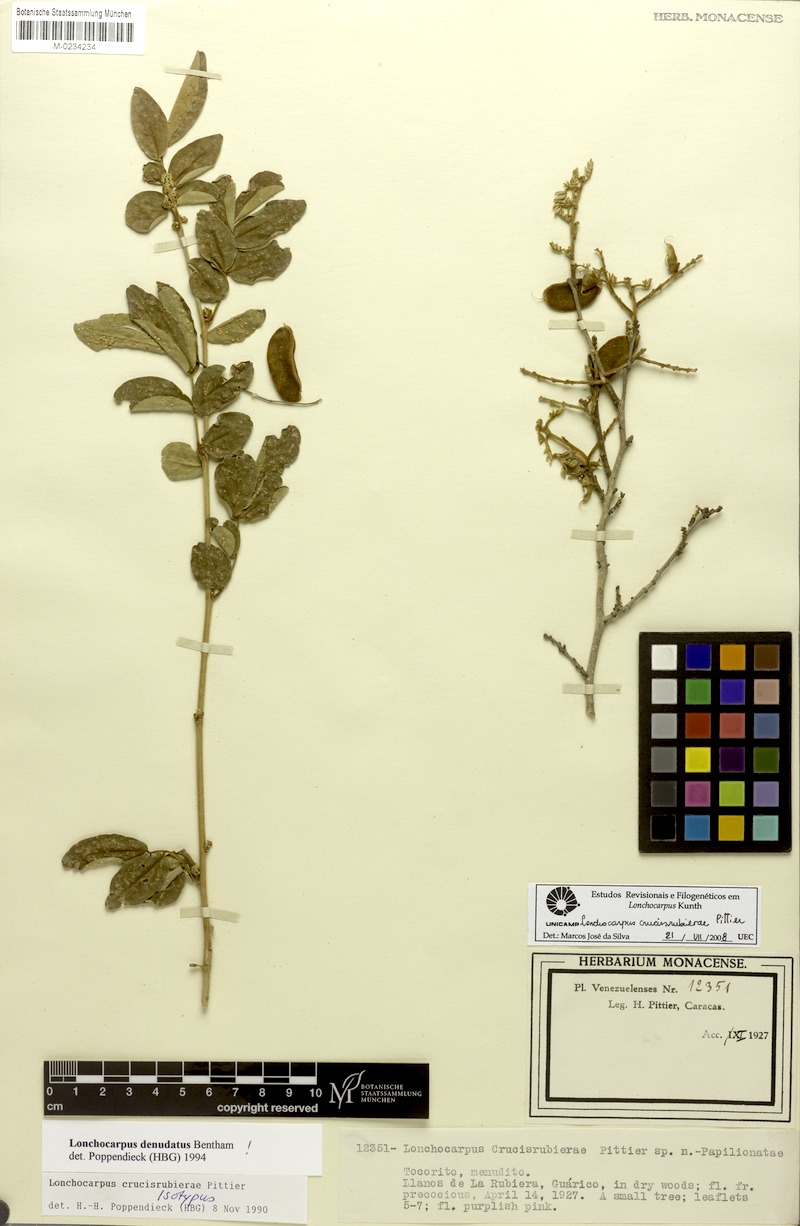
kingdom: Plantae
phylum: Tracheophyta
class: Magnoliopsida
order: Fabales
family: Fabaceae
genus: Muellera
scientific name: Muellera crucisrubierae
